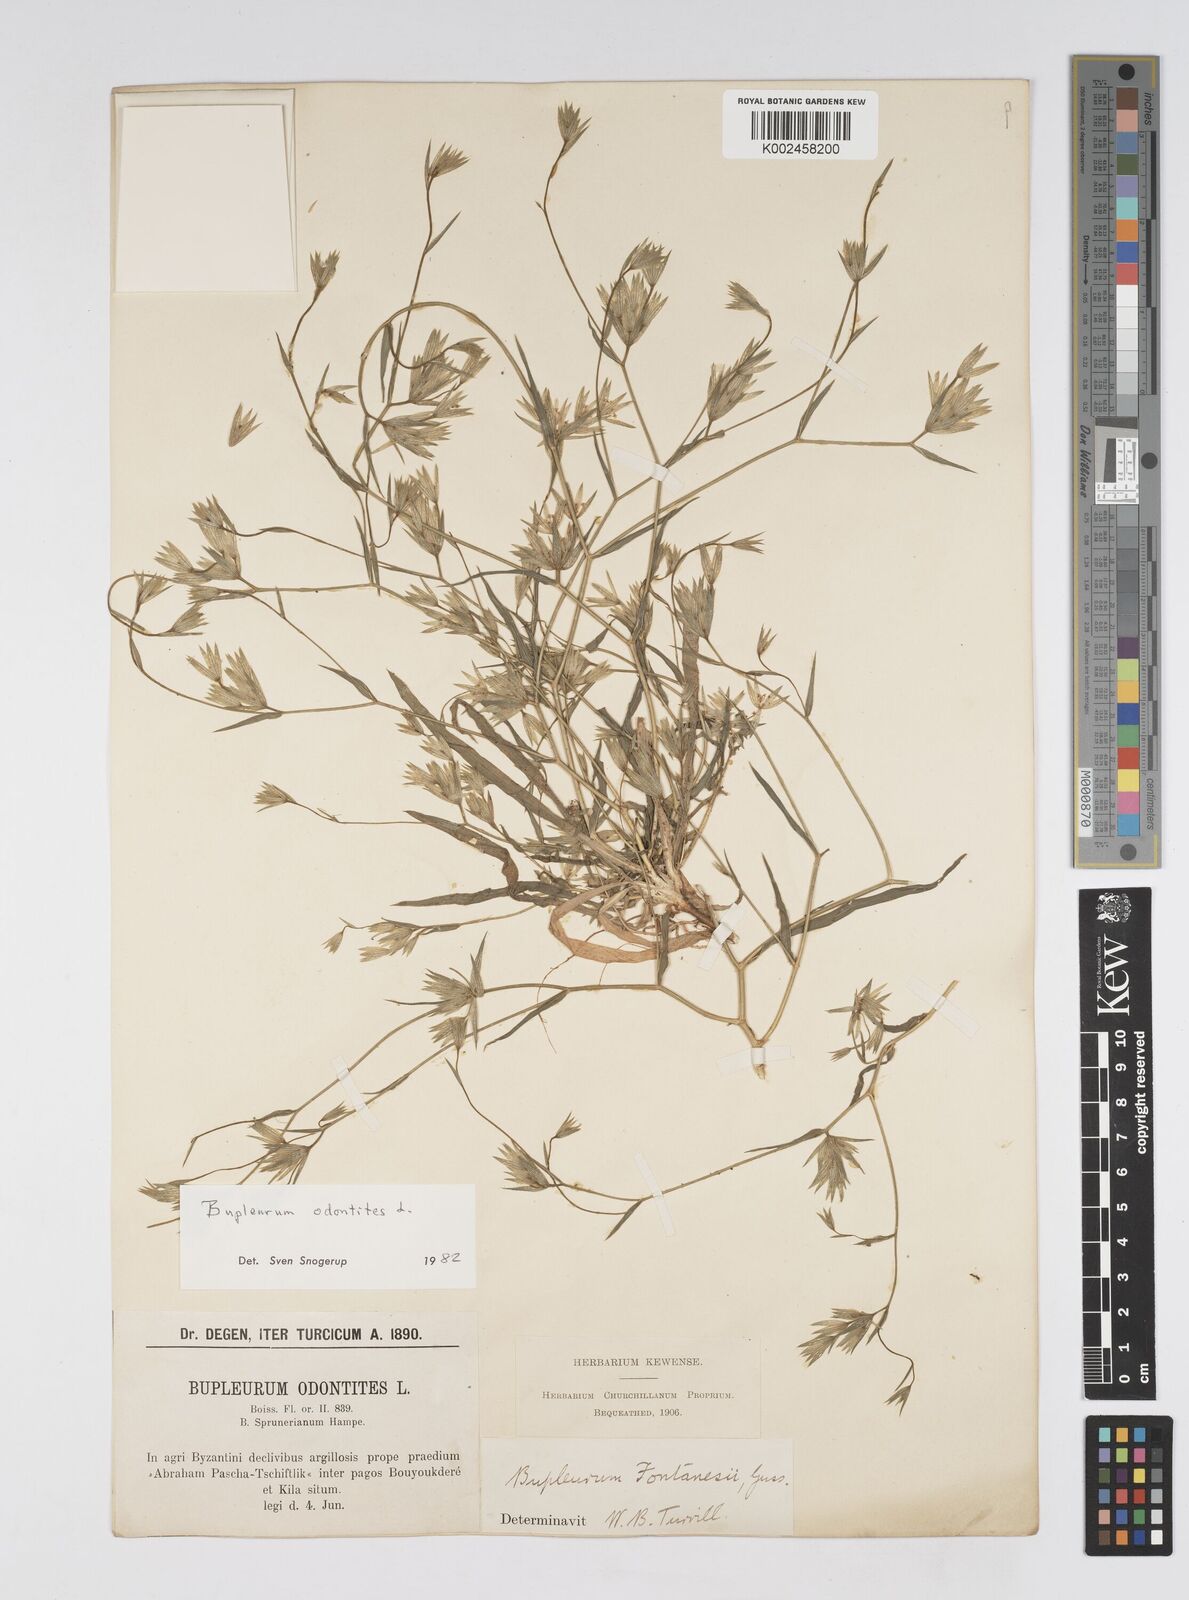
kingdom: Plantae
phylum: Tracheophyta
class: Magnoliopsida
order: Apiales
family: Apiaceae
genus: Bupleurum
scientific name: Bupleurum odontites
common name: Narrowleaf thorow wax
